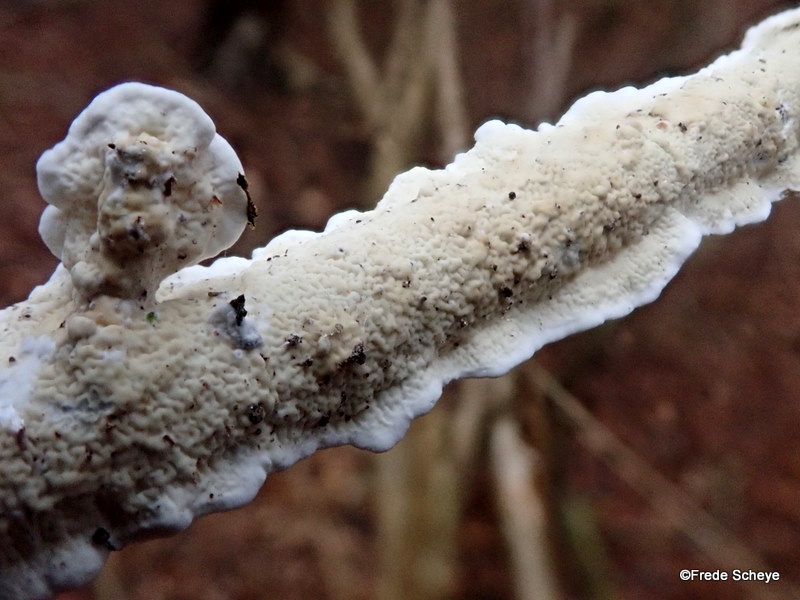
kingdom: Fungi
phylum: Basidiomycota
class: Agaricomycetes
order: Polyporales
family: Irpicaceae
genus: Byssomerulius
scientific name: Byssomerulius corium
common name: læder-åresvamp
